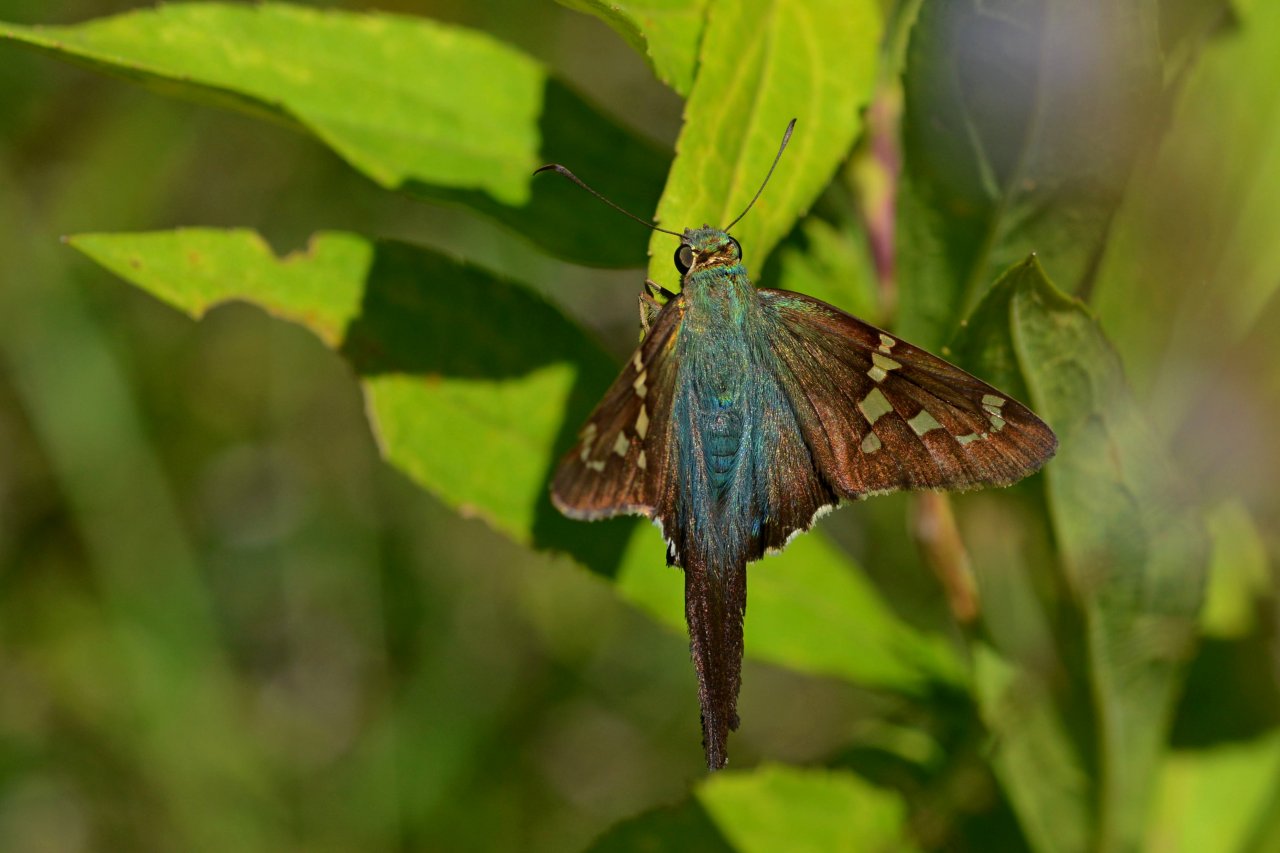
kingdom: Animalia
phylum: Arthropoda
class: Insecta
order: Lepidoptera
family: Hesperiidae
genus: Urbanus
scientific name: Urbanus proteus
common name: Long-tailed Skipper
